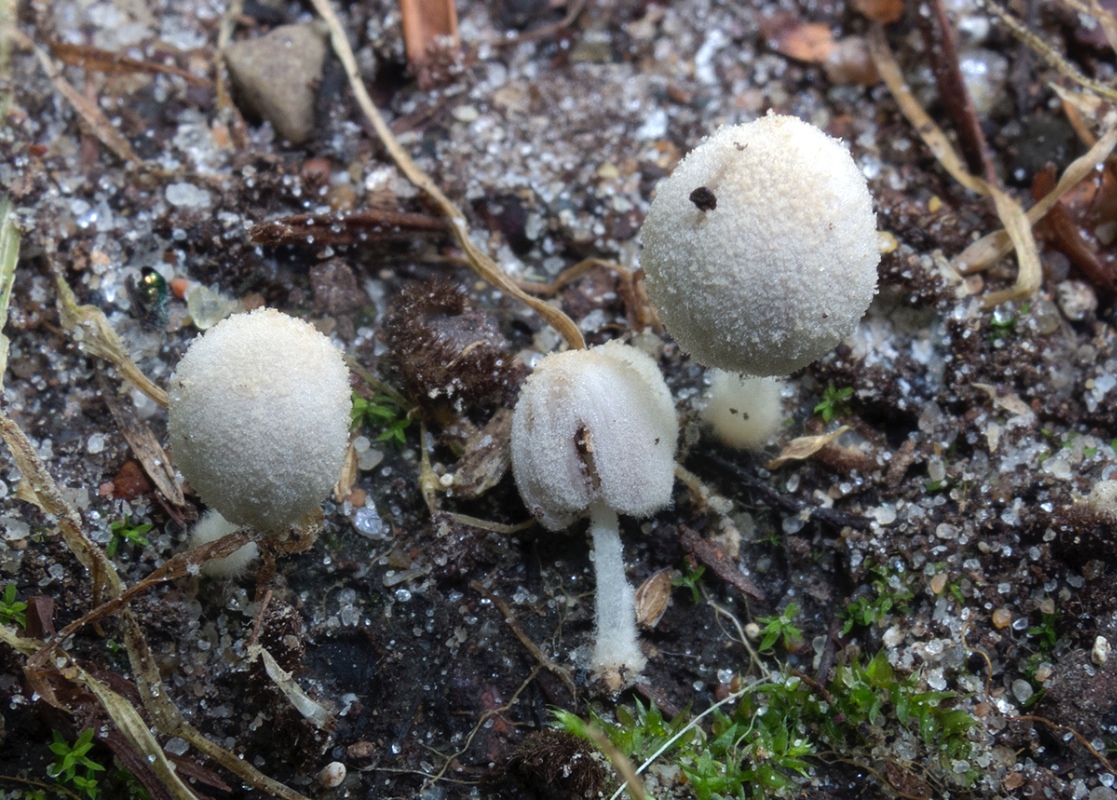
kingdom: Fungi
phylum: Basidiomycota
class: Agaricomycetes
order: Agaricales
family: Psathyrellaceae
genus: Coprinopsis
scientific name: Coprinopsis candidata
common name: hvidklædt blækhat
